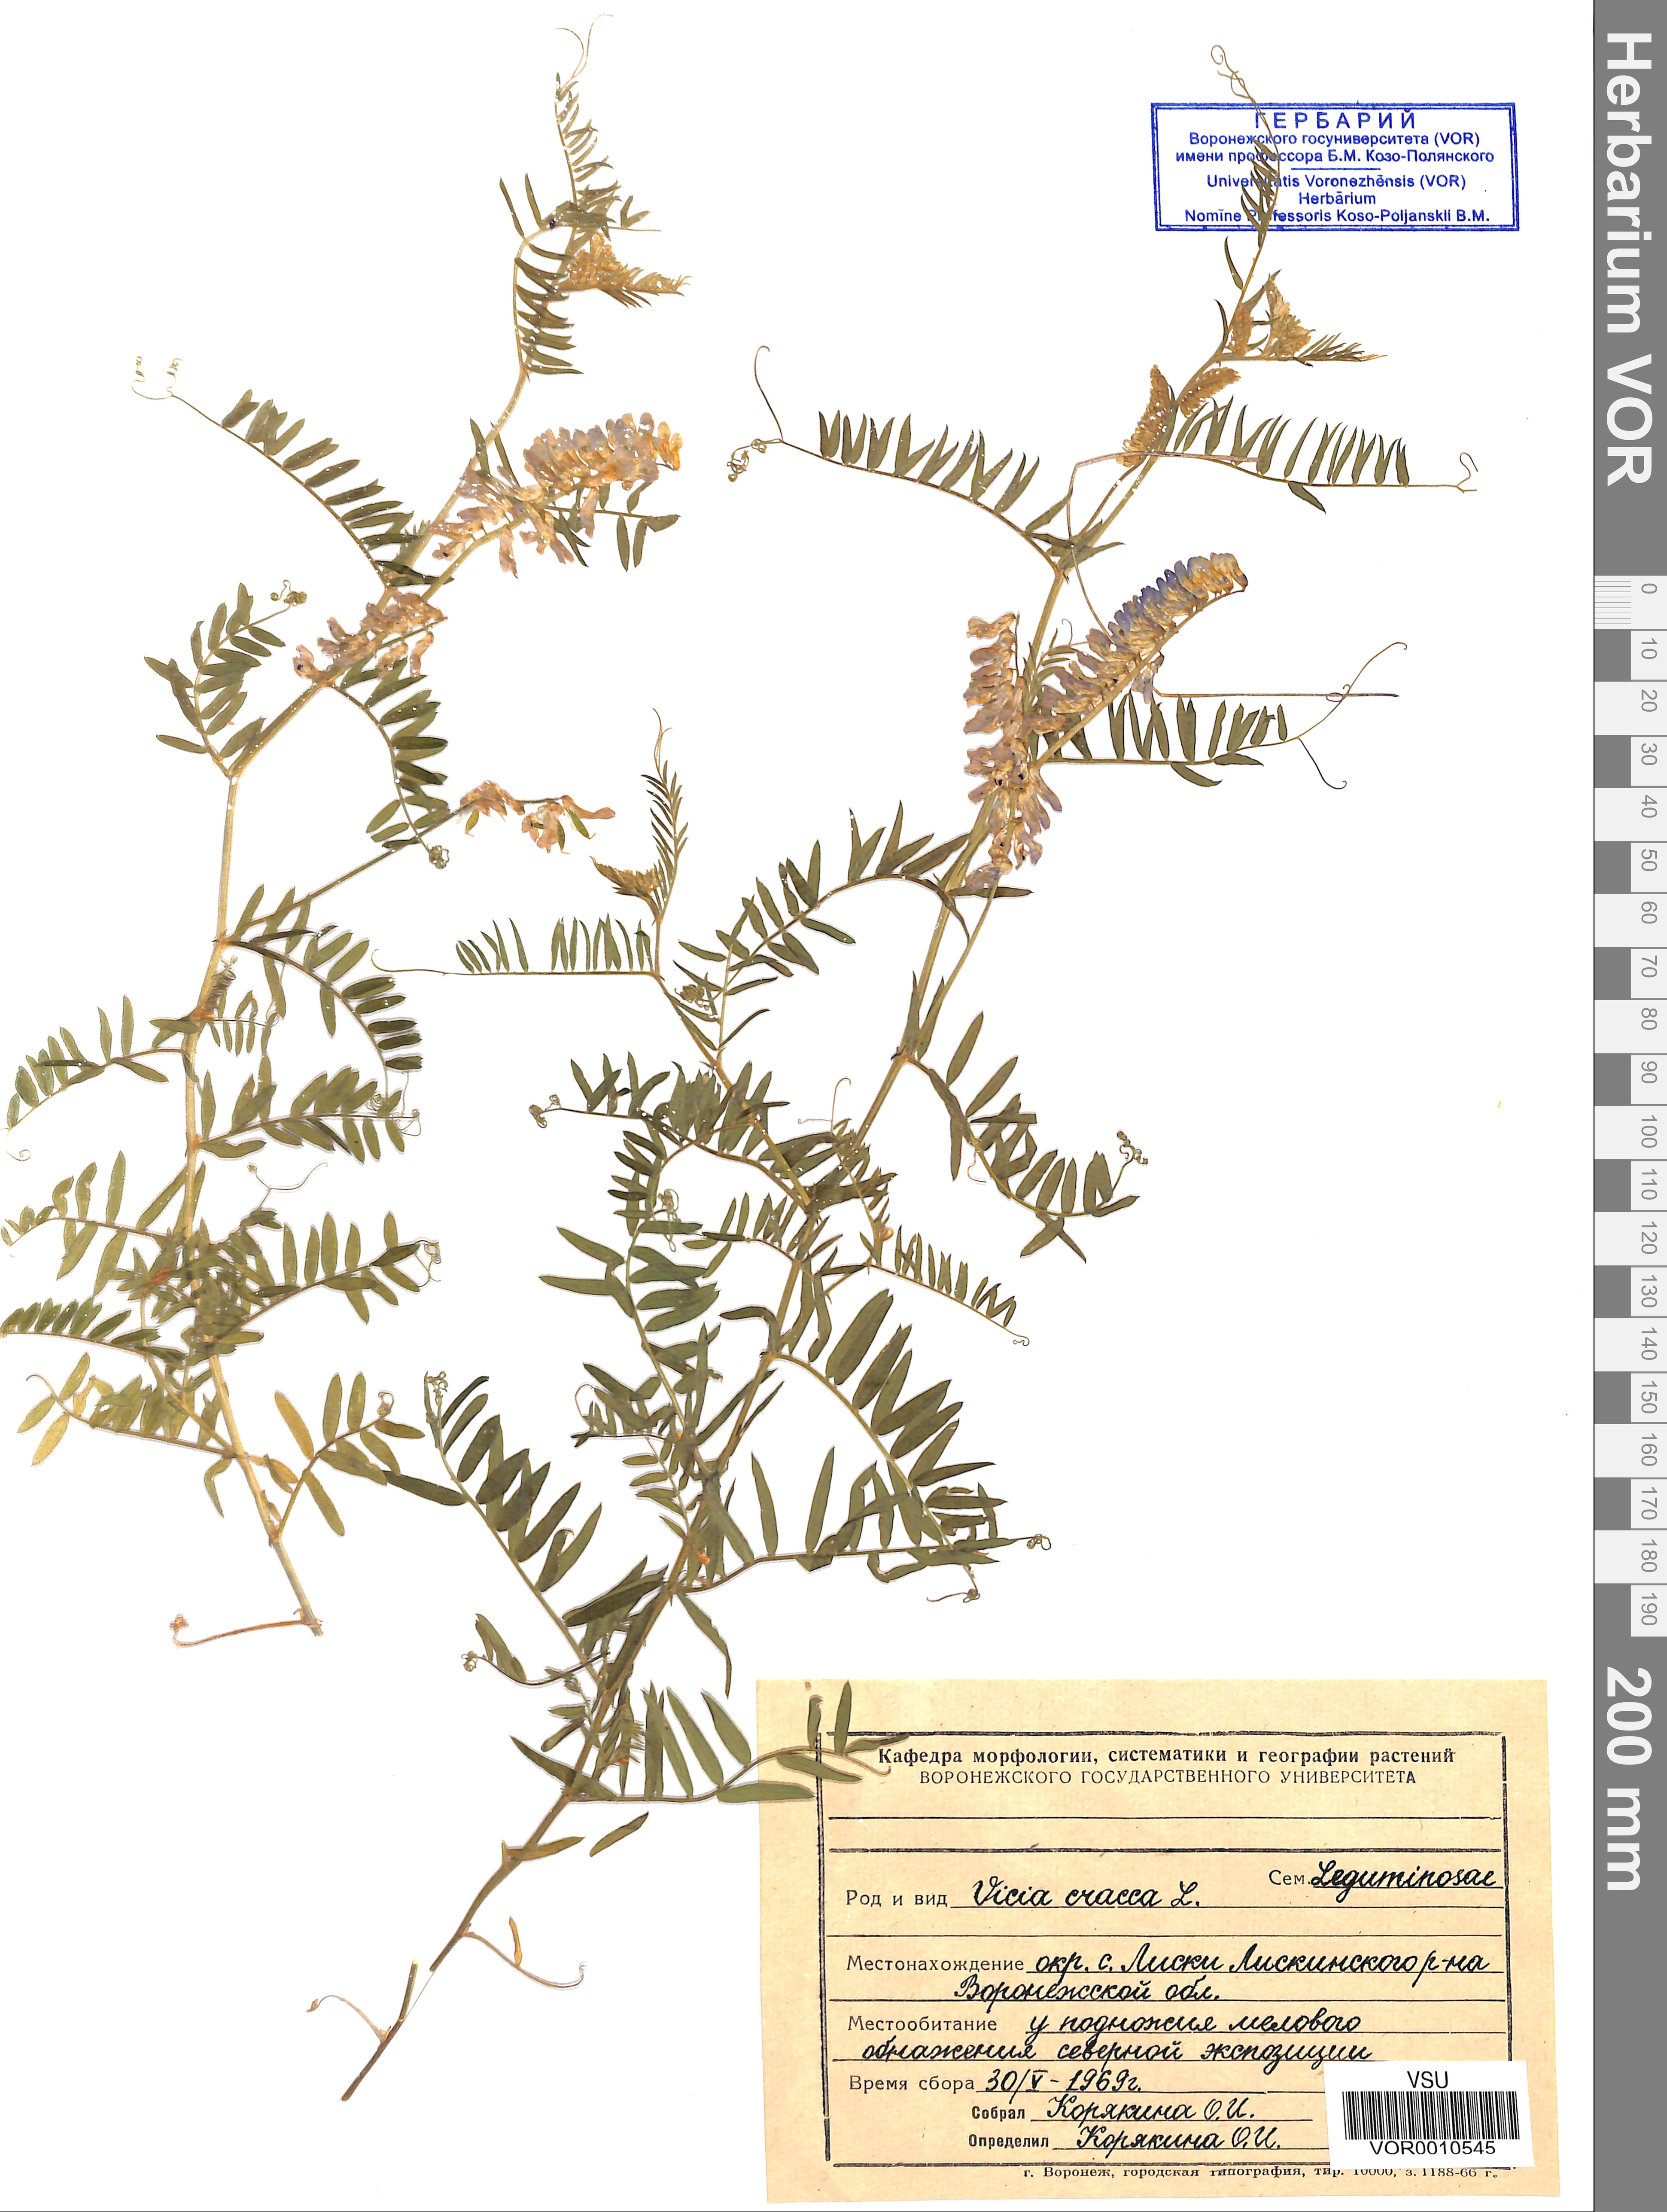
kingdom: Plantae
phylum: Tracheophyta
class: Magnoliopsida
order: Fabales
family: Fabaceae
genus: Vicia
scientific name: Vicia cracca
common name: Bird vetch
